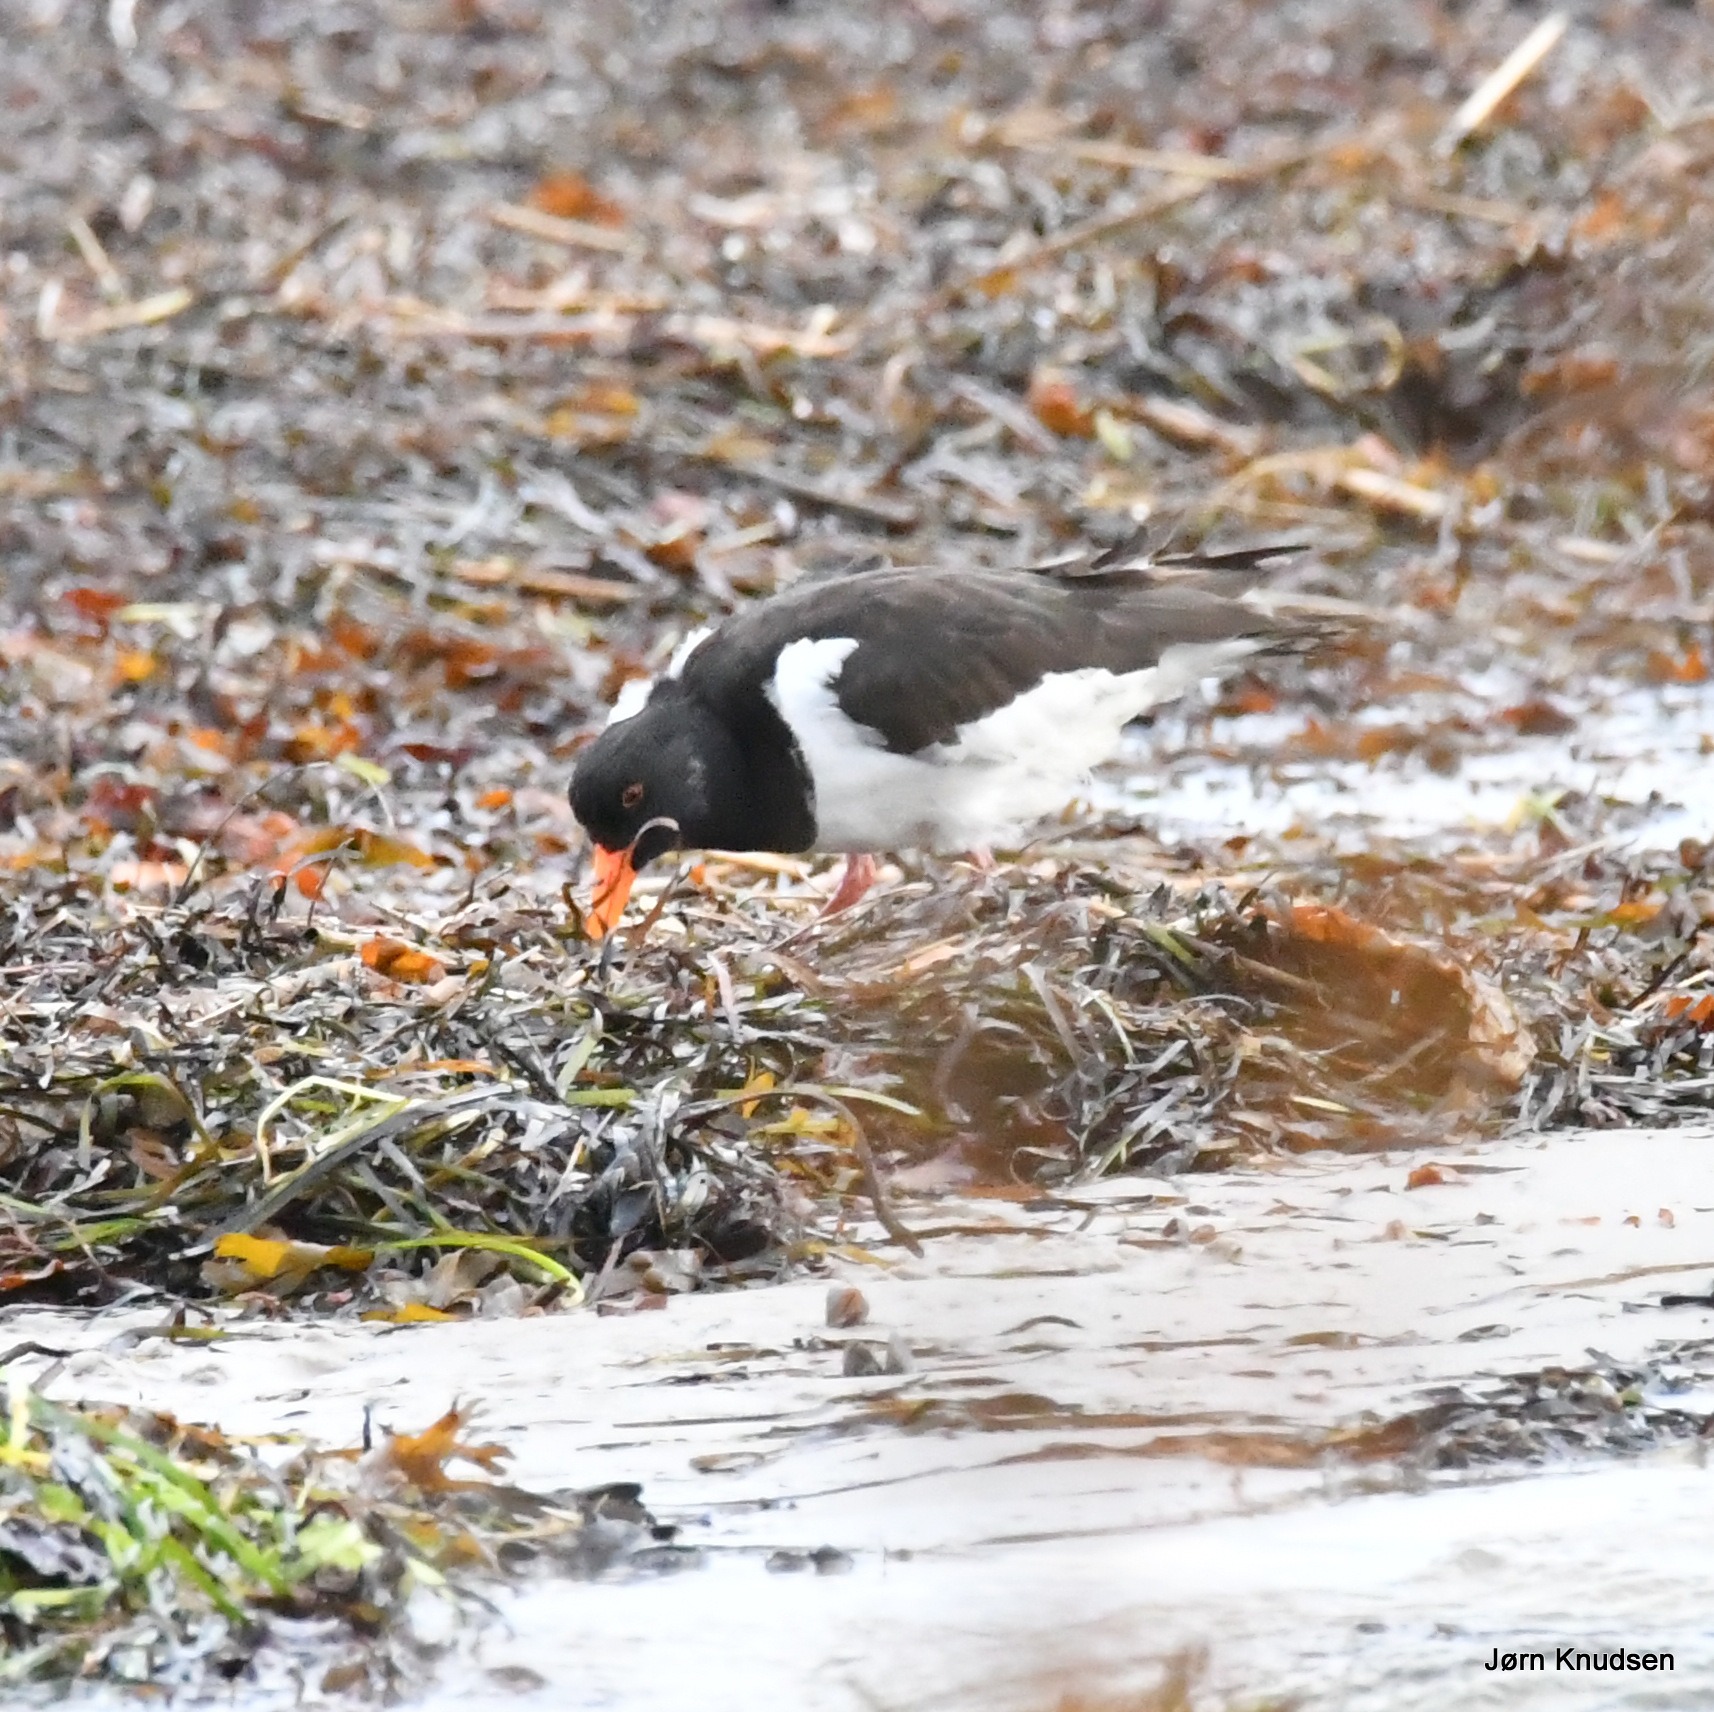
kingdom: Animalia
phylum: Chordata
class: Aves
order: Charadriiformes
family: Haematopodidae
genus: Haematopus
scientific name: Haematopus ostralegus
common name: Strandskade
